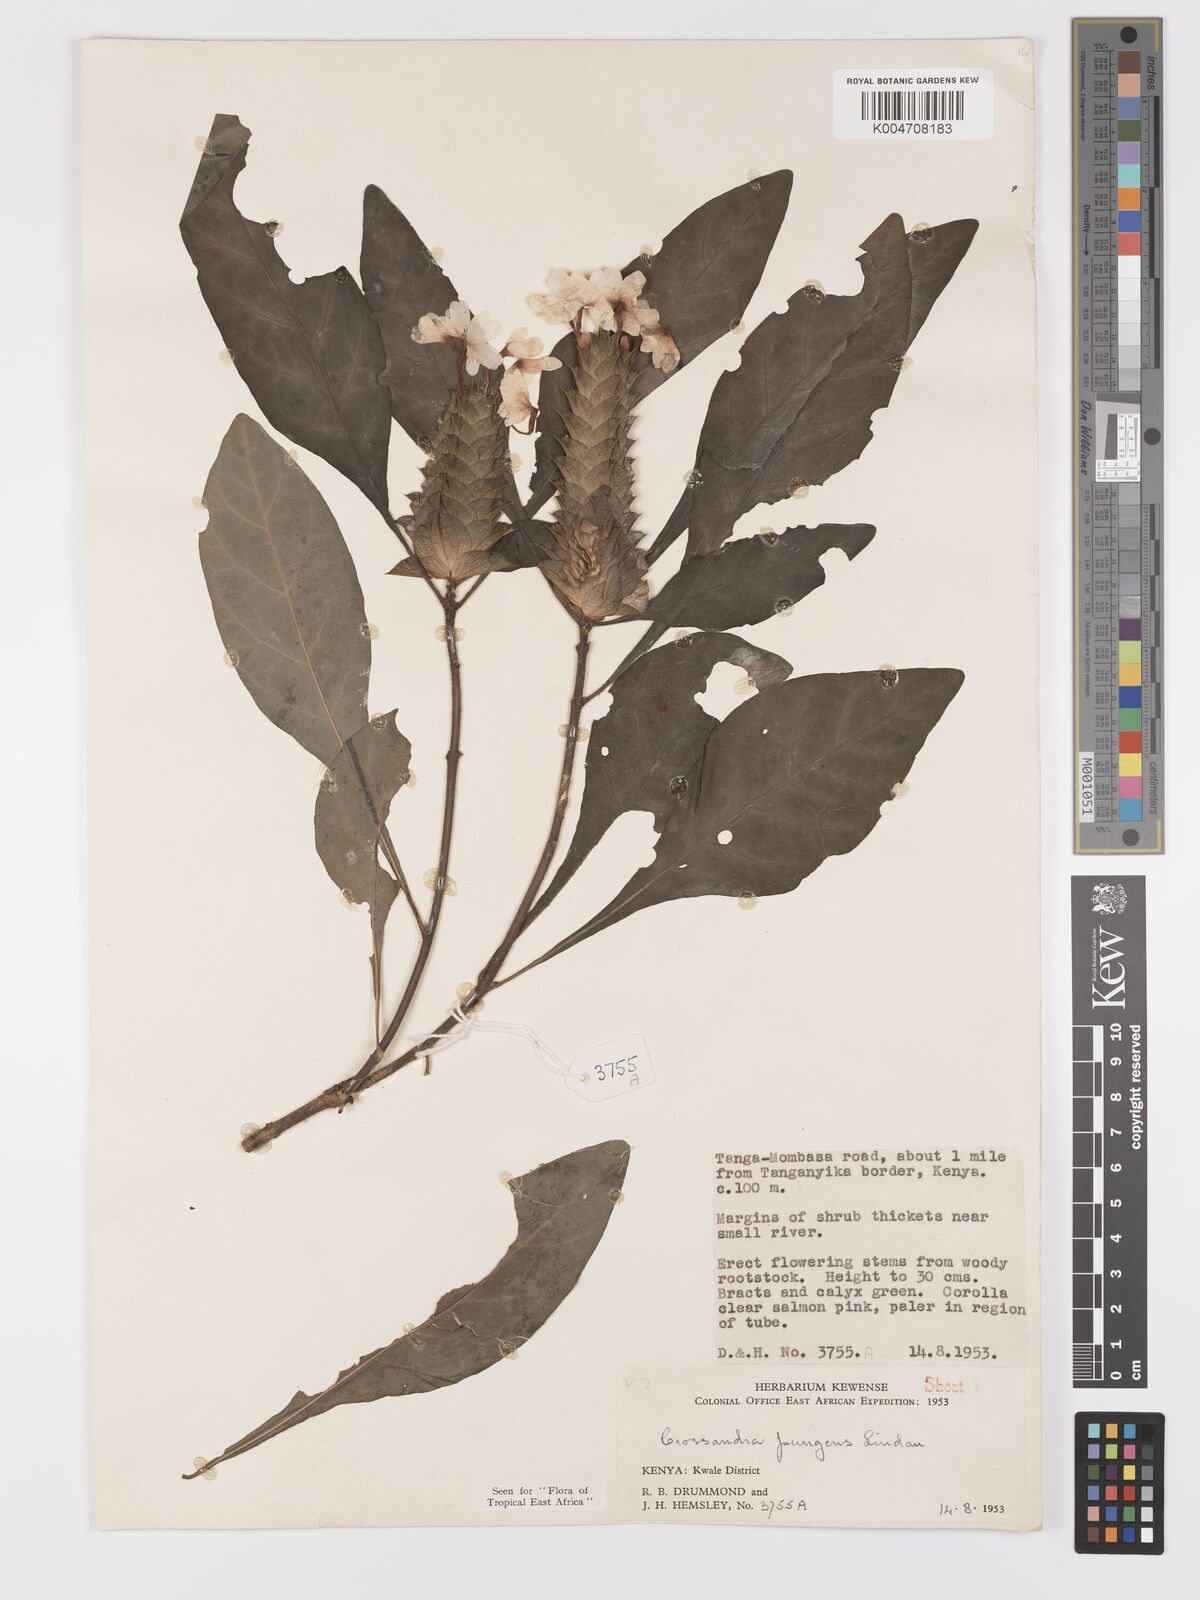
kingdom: Plantae
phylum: Tracheophyta
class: Magnoliopsida
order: Lamiales
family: Acanthaceae
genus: Crossandra
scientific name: Crossandra pungens
